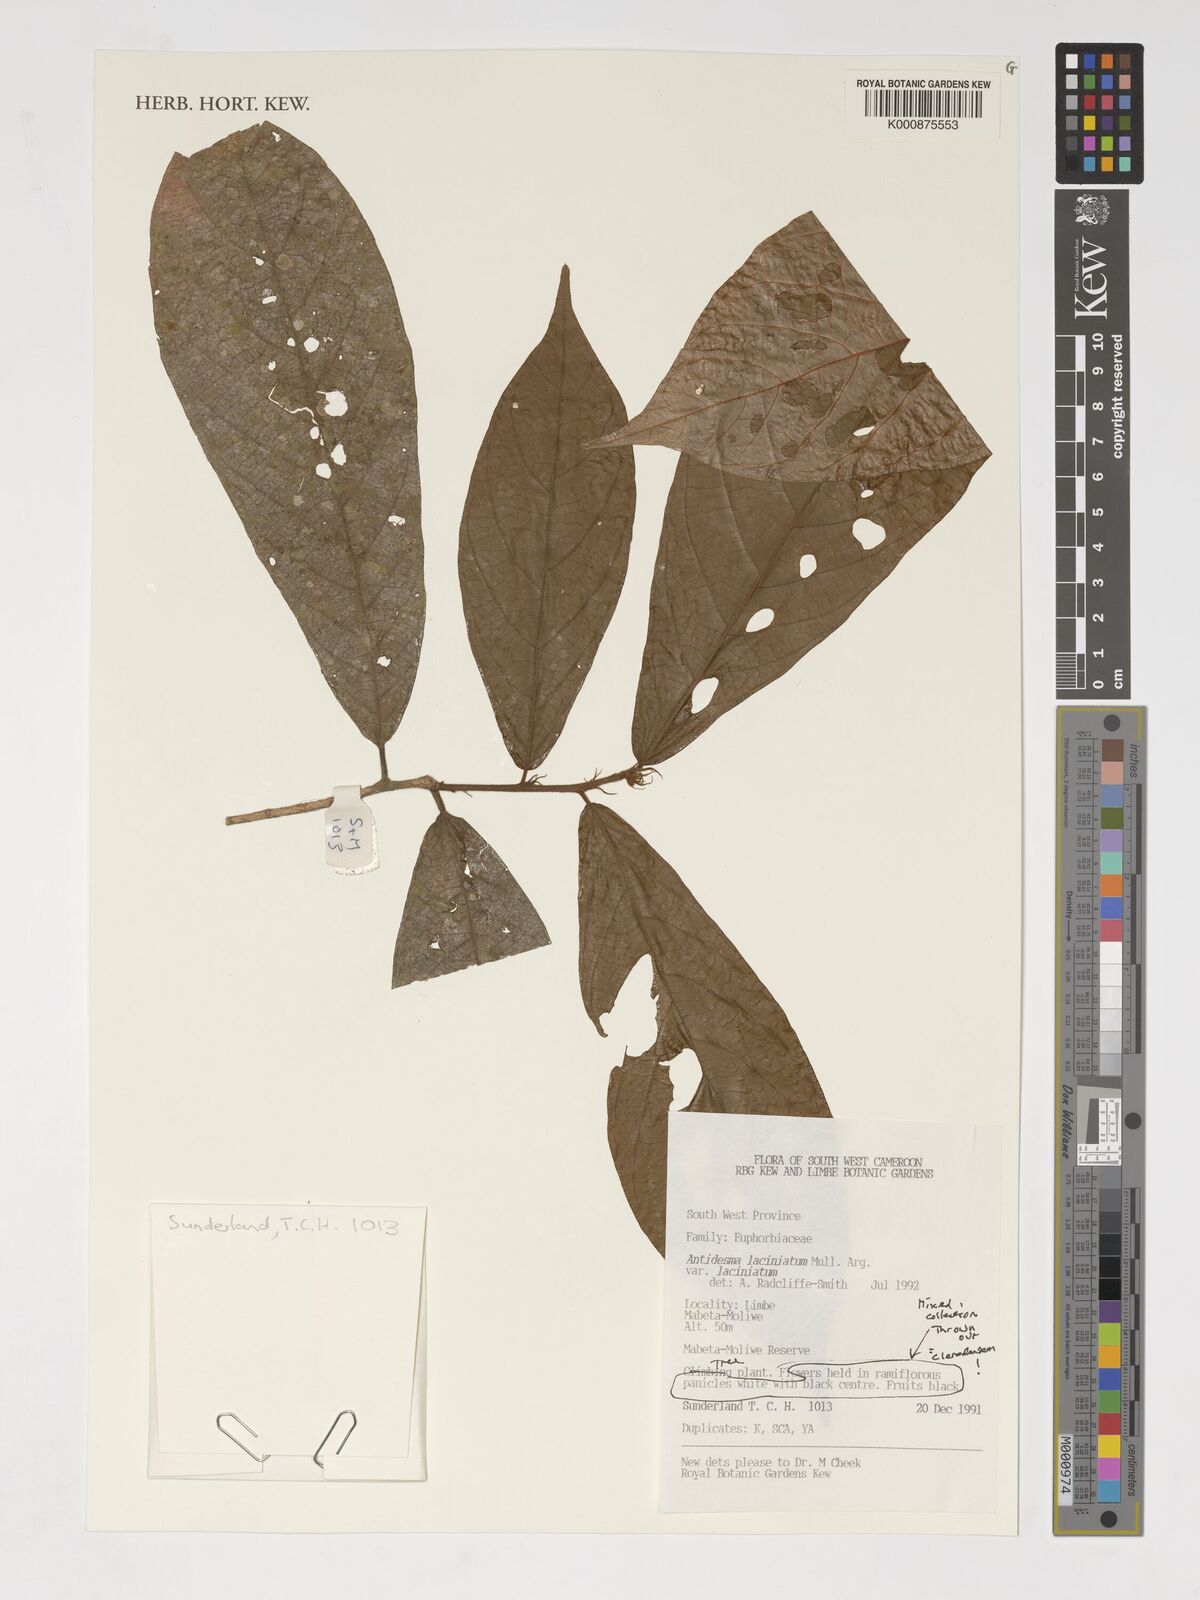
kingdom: Plantae
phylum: Tracheophyta
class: Magnoliopsida
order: Malpighiales
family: Phyllanthaceae
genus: Antidesma
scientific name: Antidesma laciniatum
